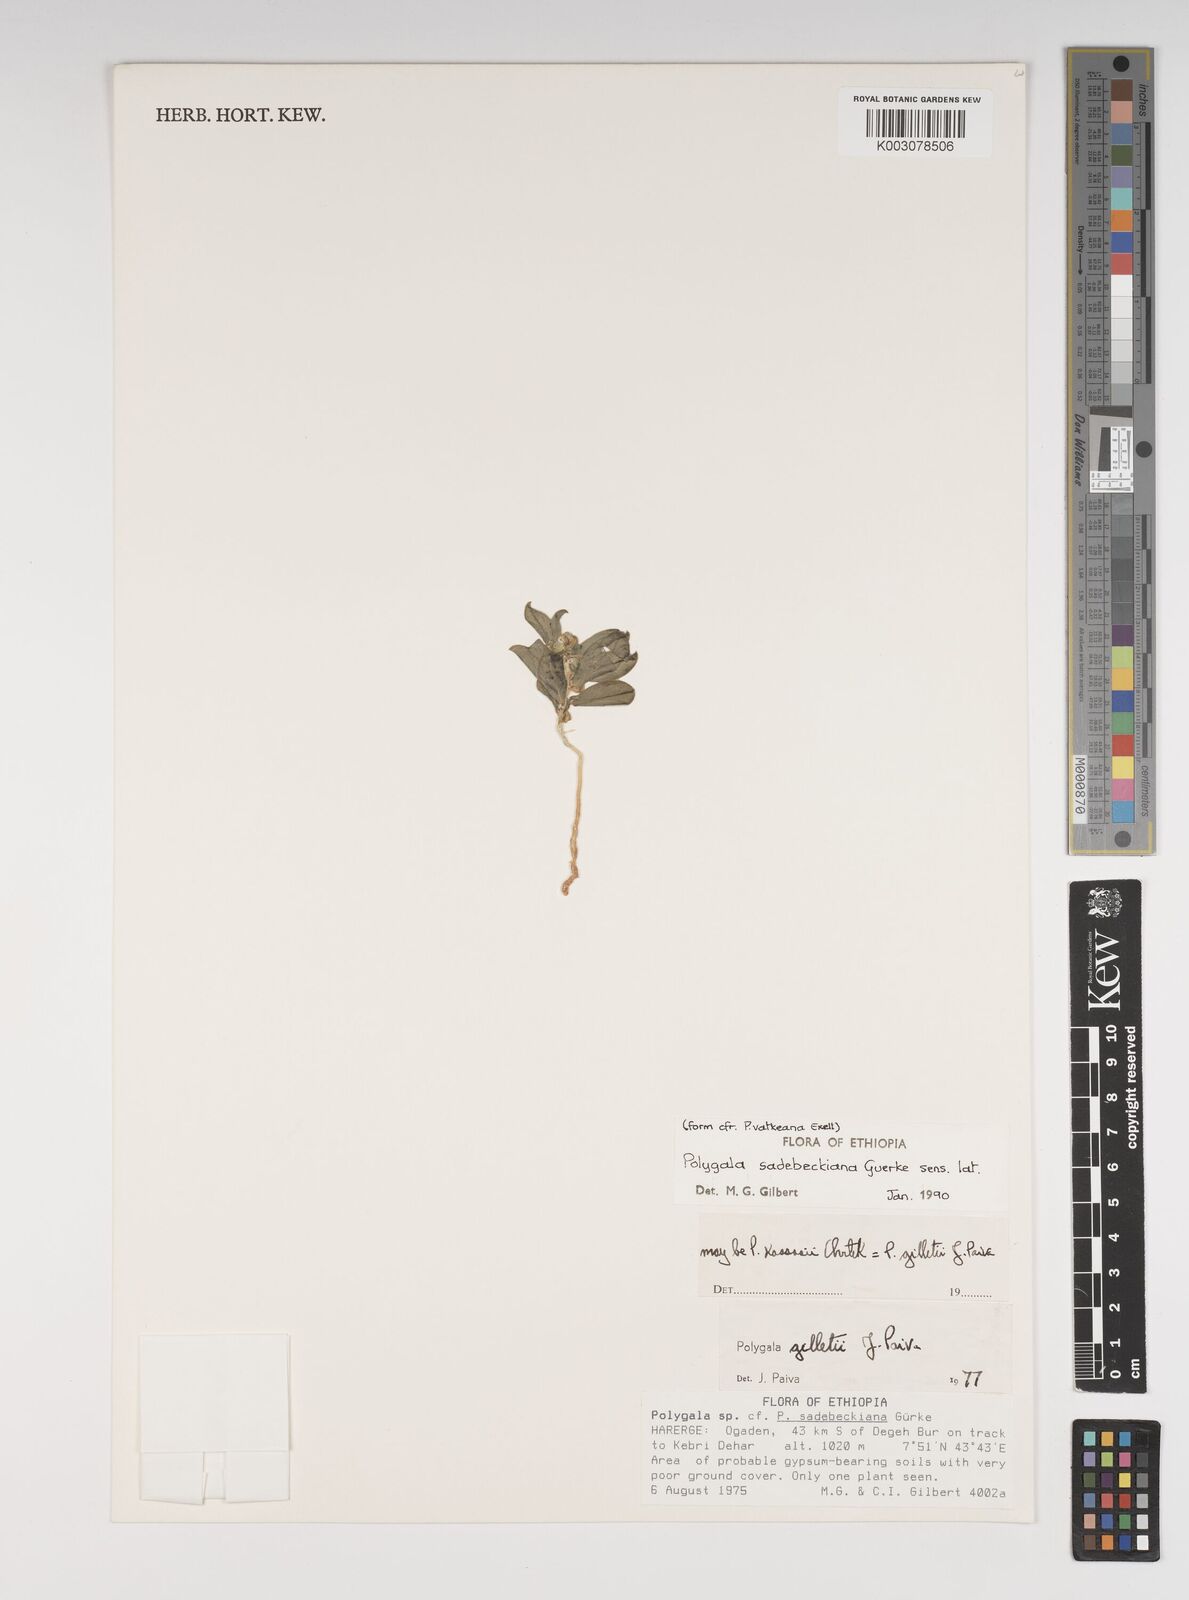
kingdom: Plantae
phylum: Tracheophyta
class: Magnoliopsida
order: Fabales
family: Polygalaceae
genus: Polygala
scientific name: Polygala sadebeckiana
